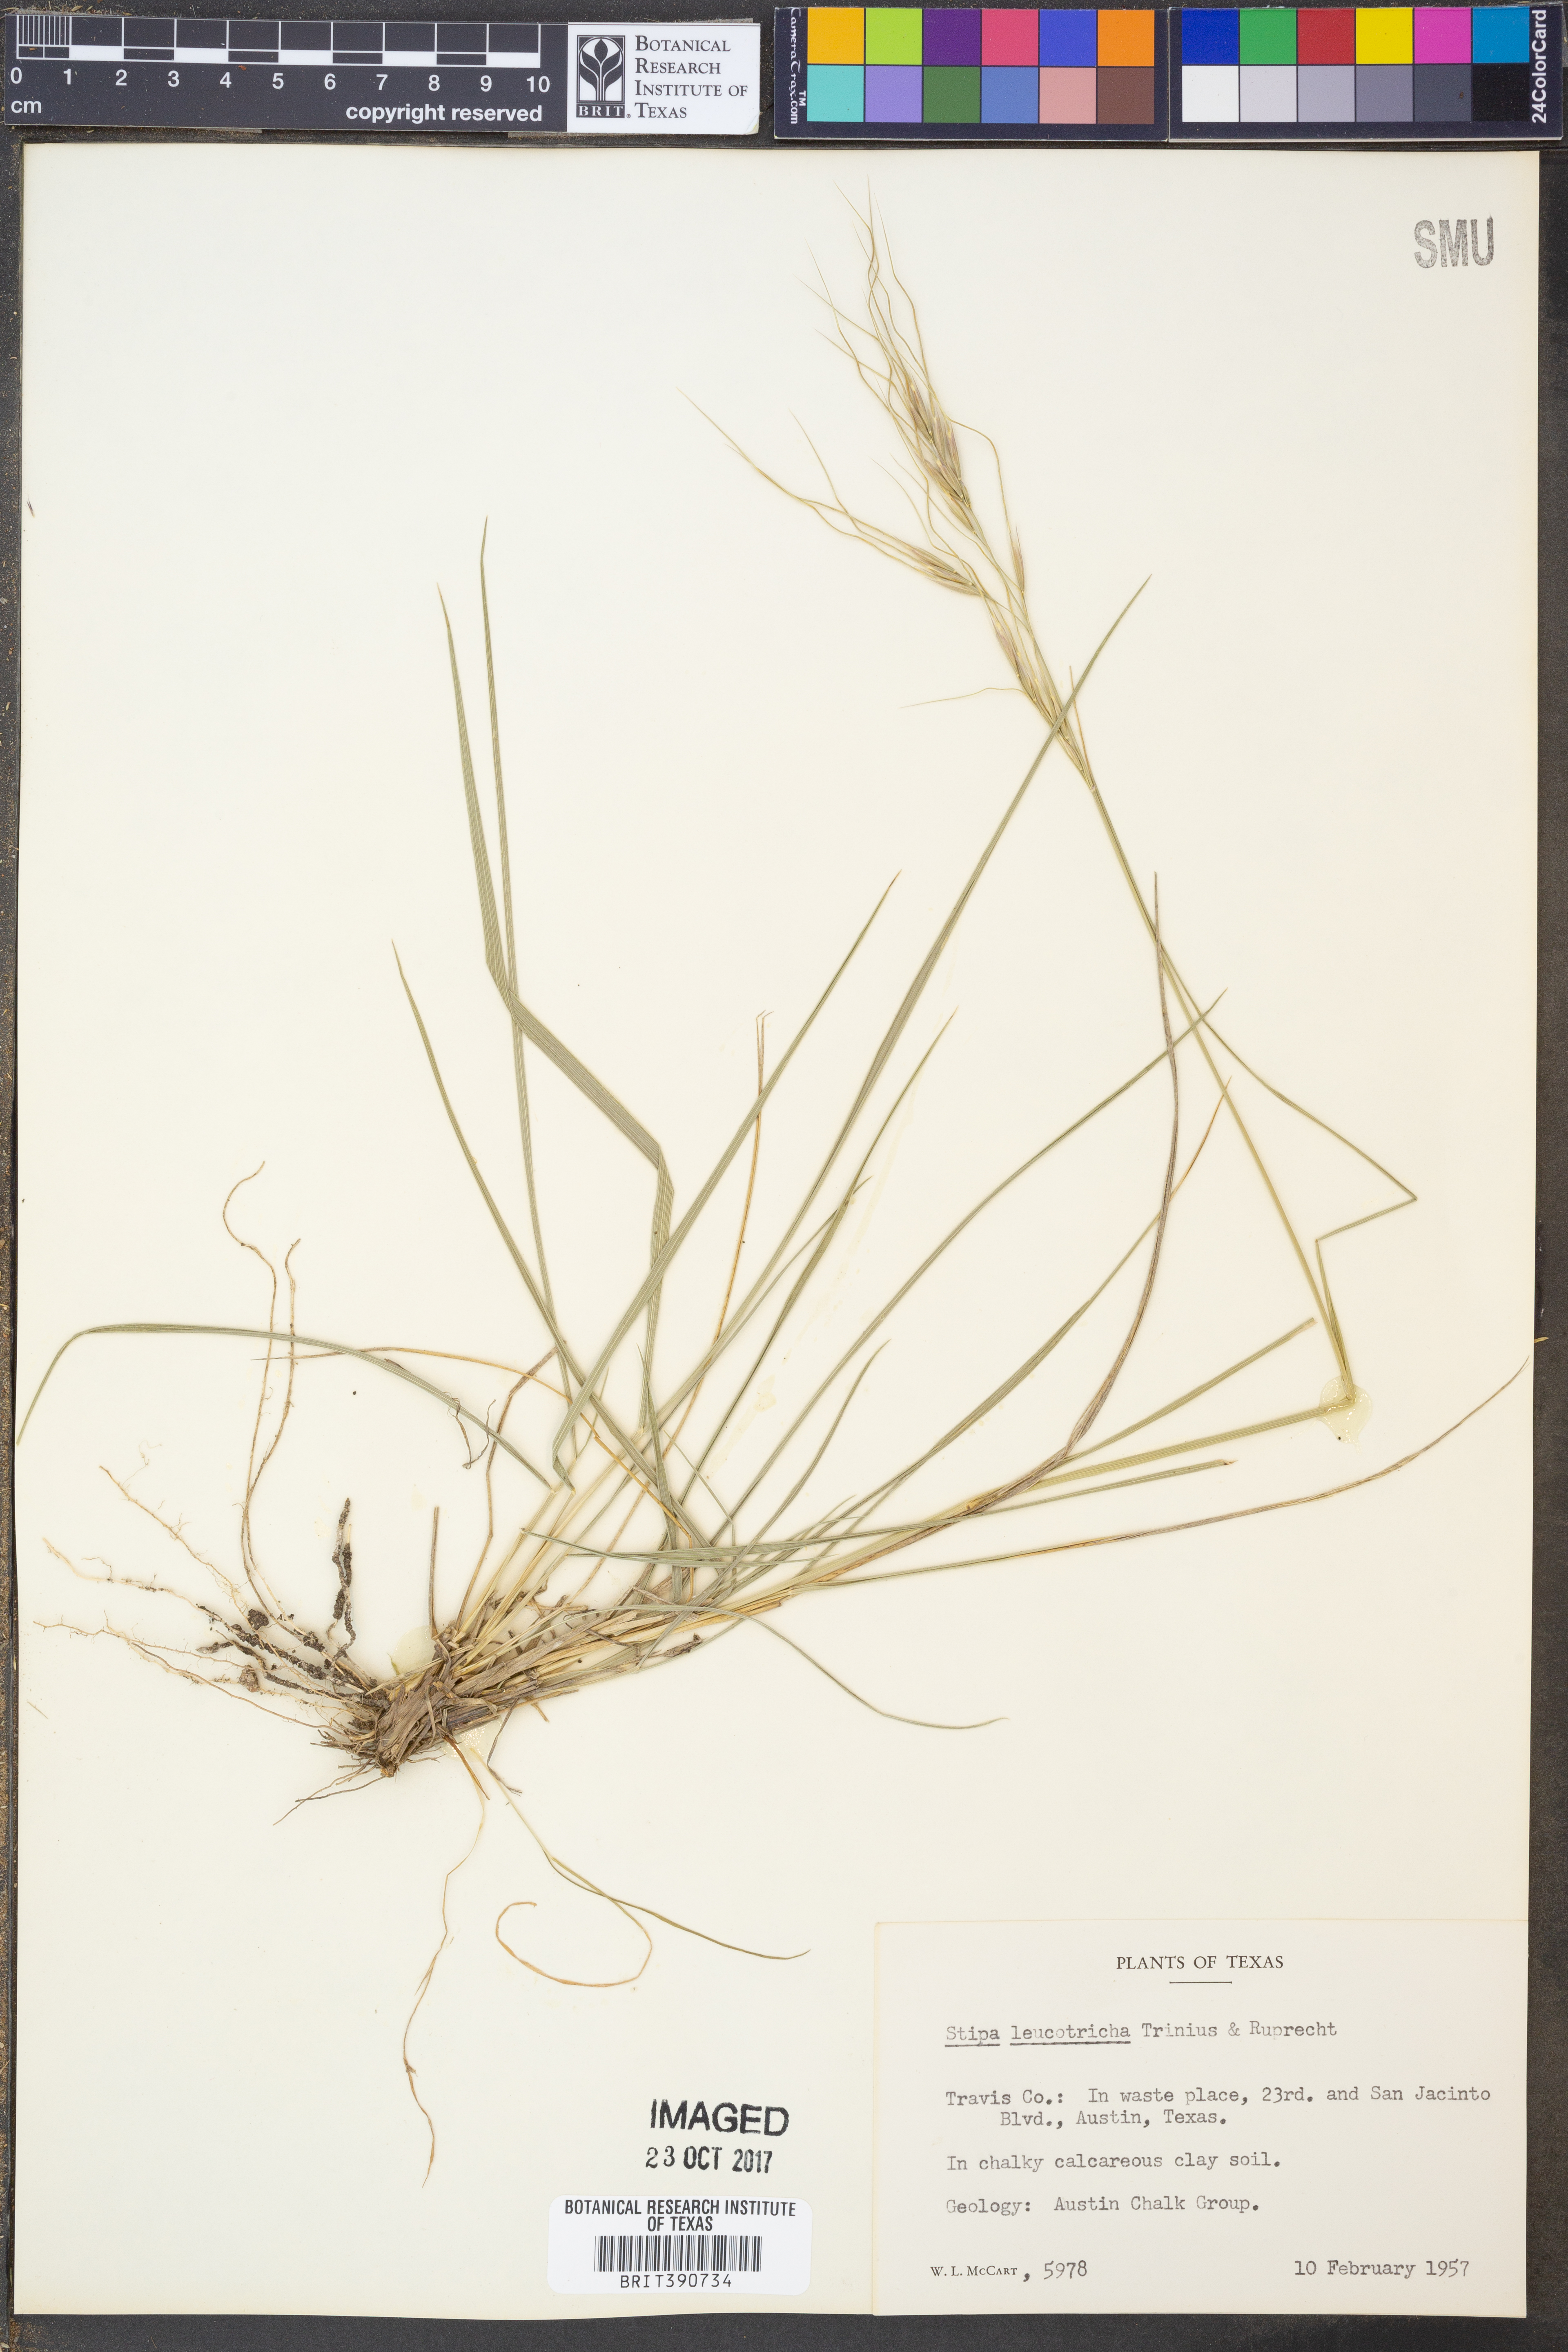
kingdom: Plantae
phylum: Tracheophyta
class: Liliopsida
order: Poales
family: Poaceae
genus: Nassella
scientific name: Nassella leucotricha
